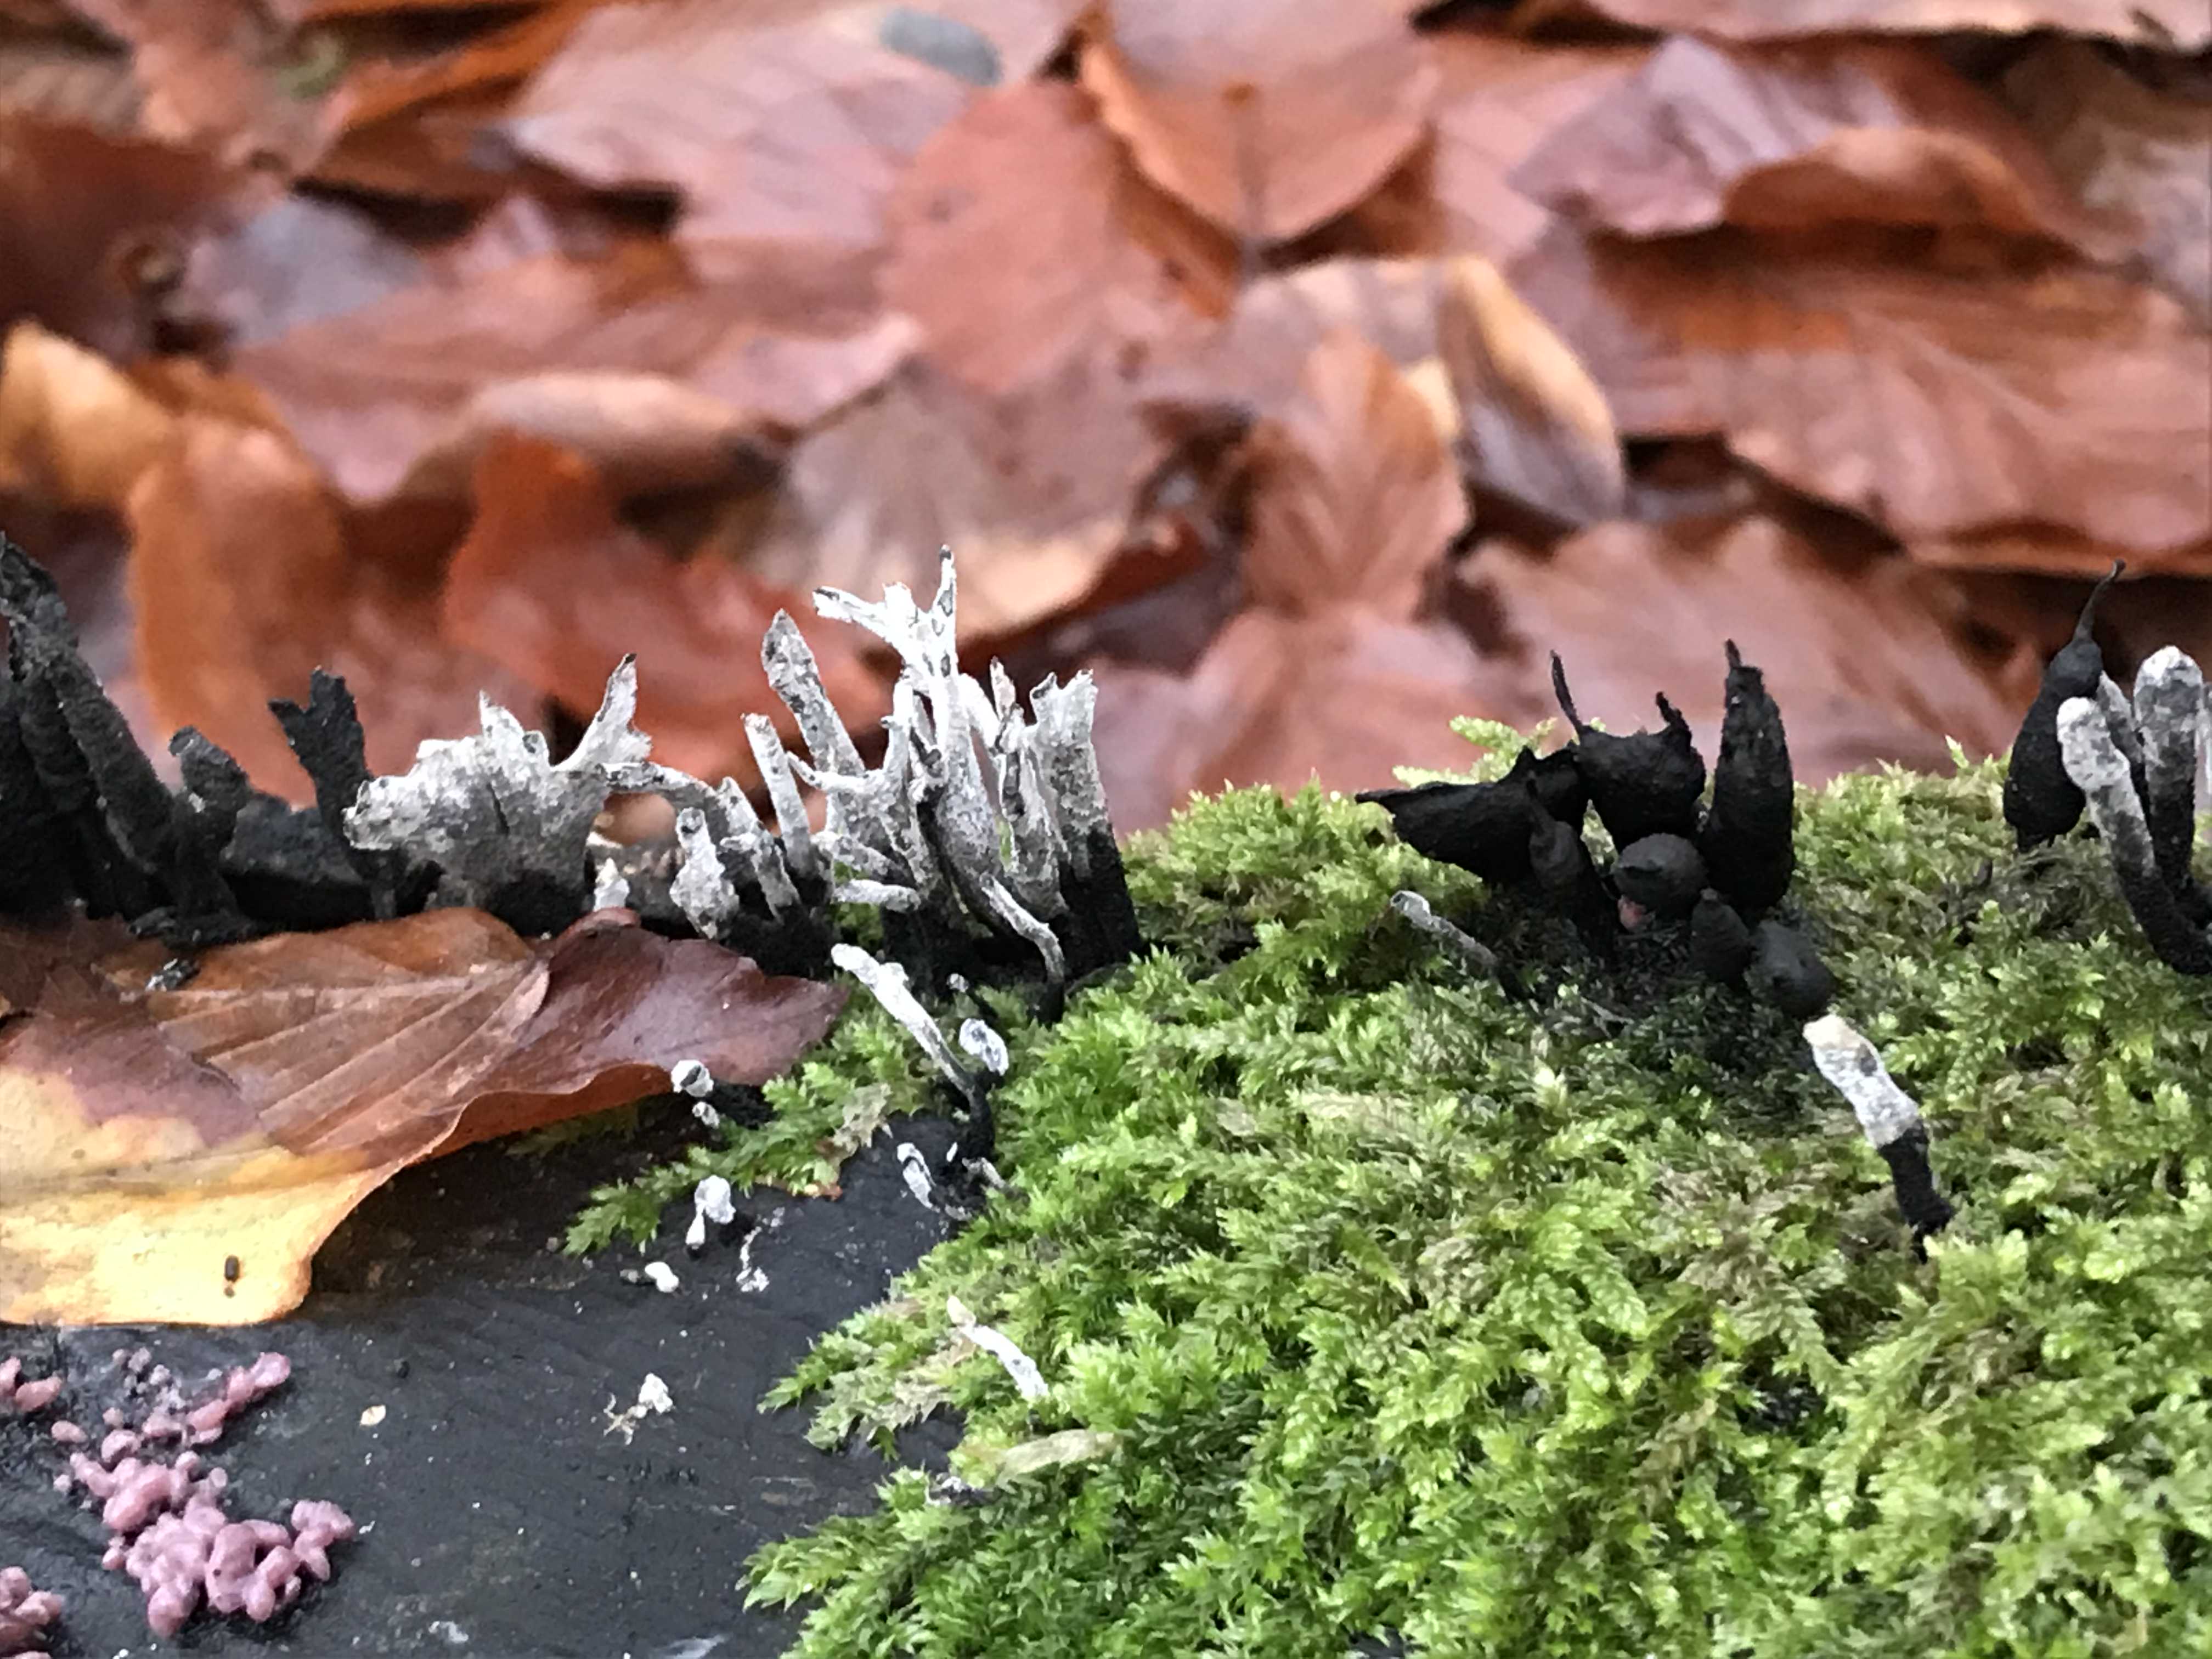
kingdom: Fungi
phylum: Ascomycota
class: Sordariomycetes
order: Xylariales
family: Xylariaceae
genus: Xylaria
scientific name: Xylaria hypoxylon
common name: grenet stødsvamp
